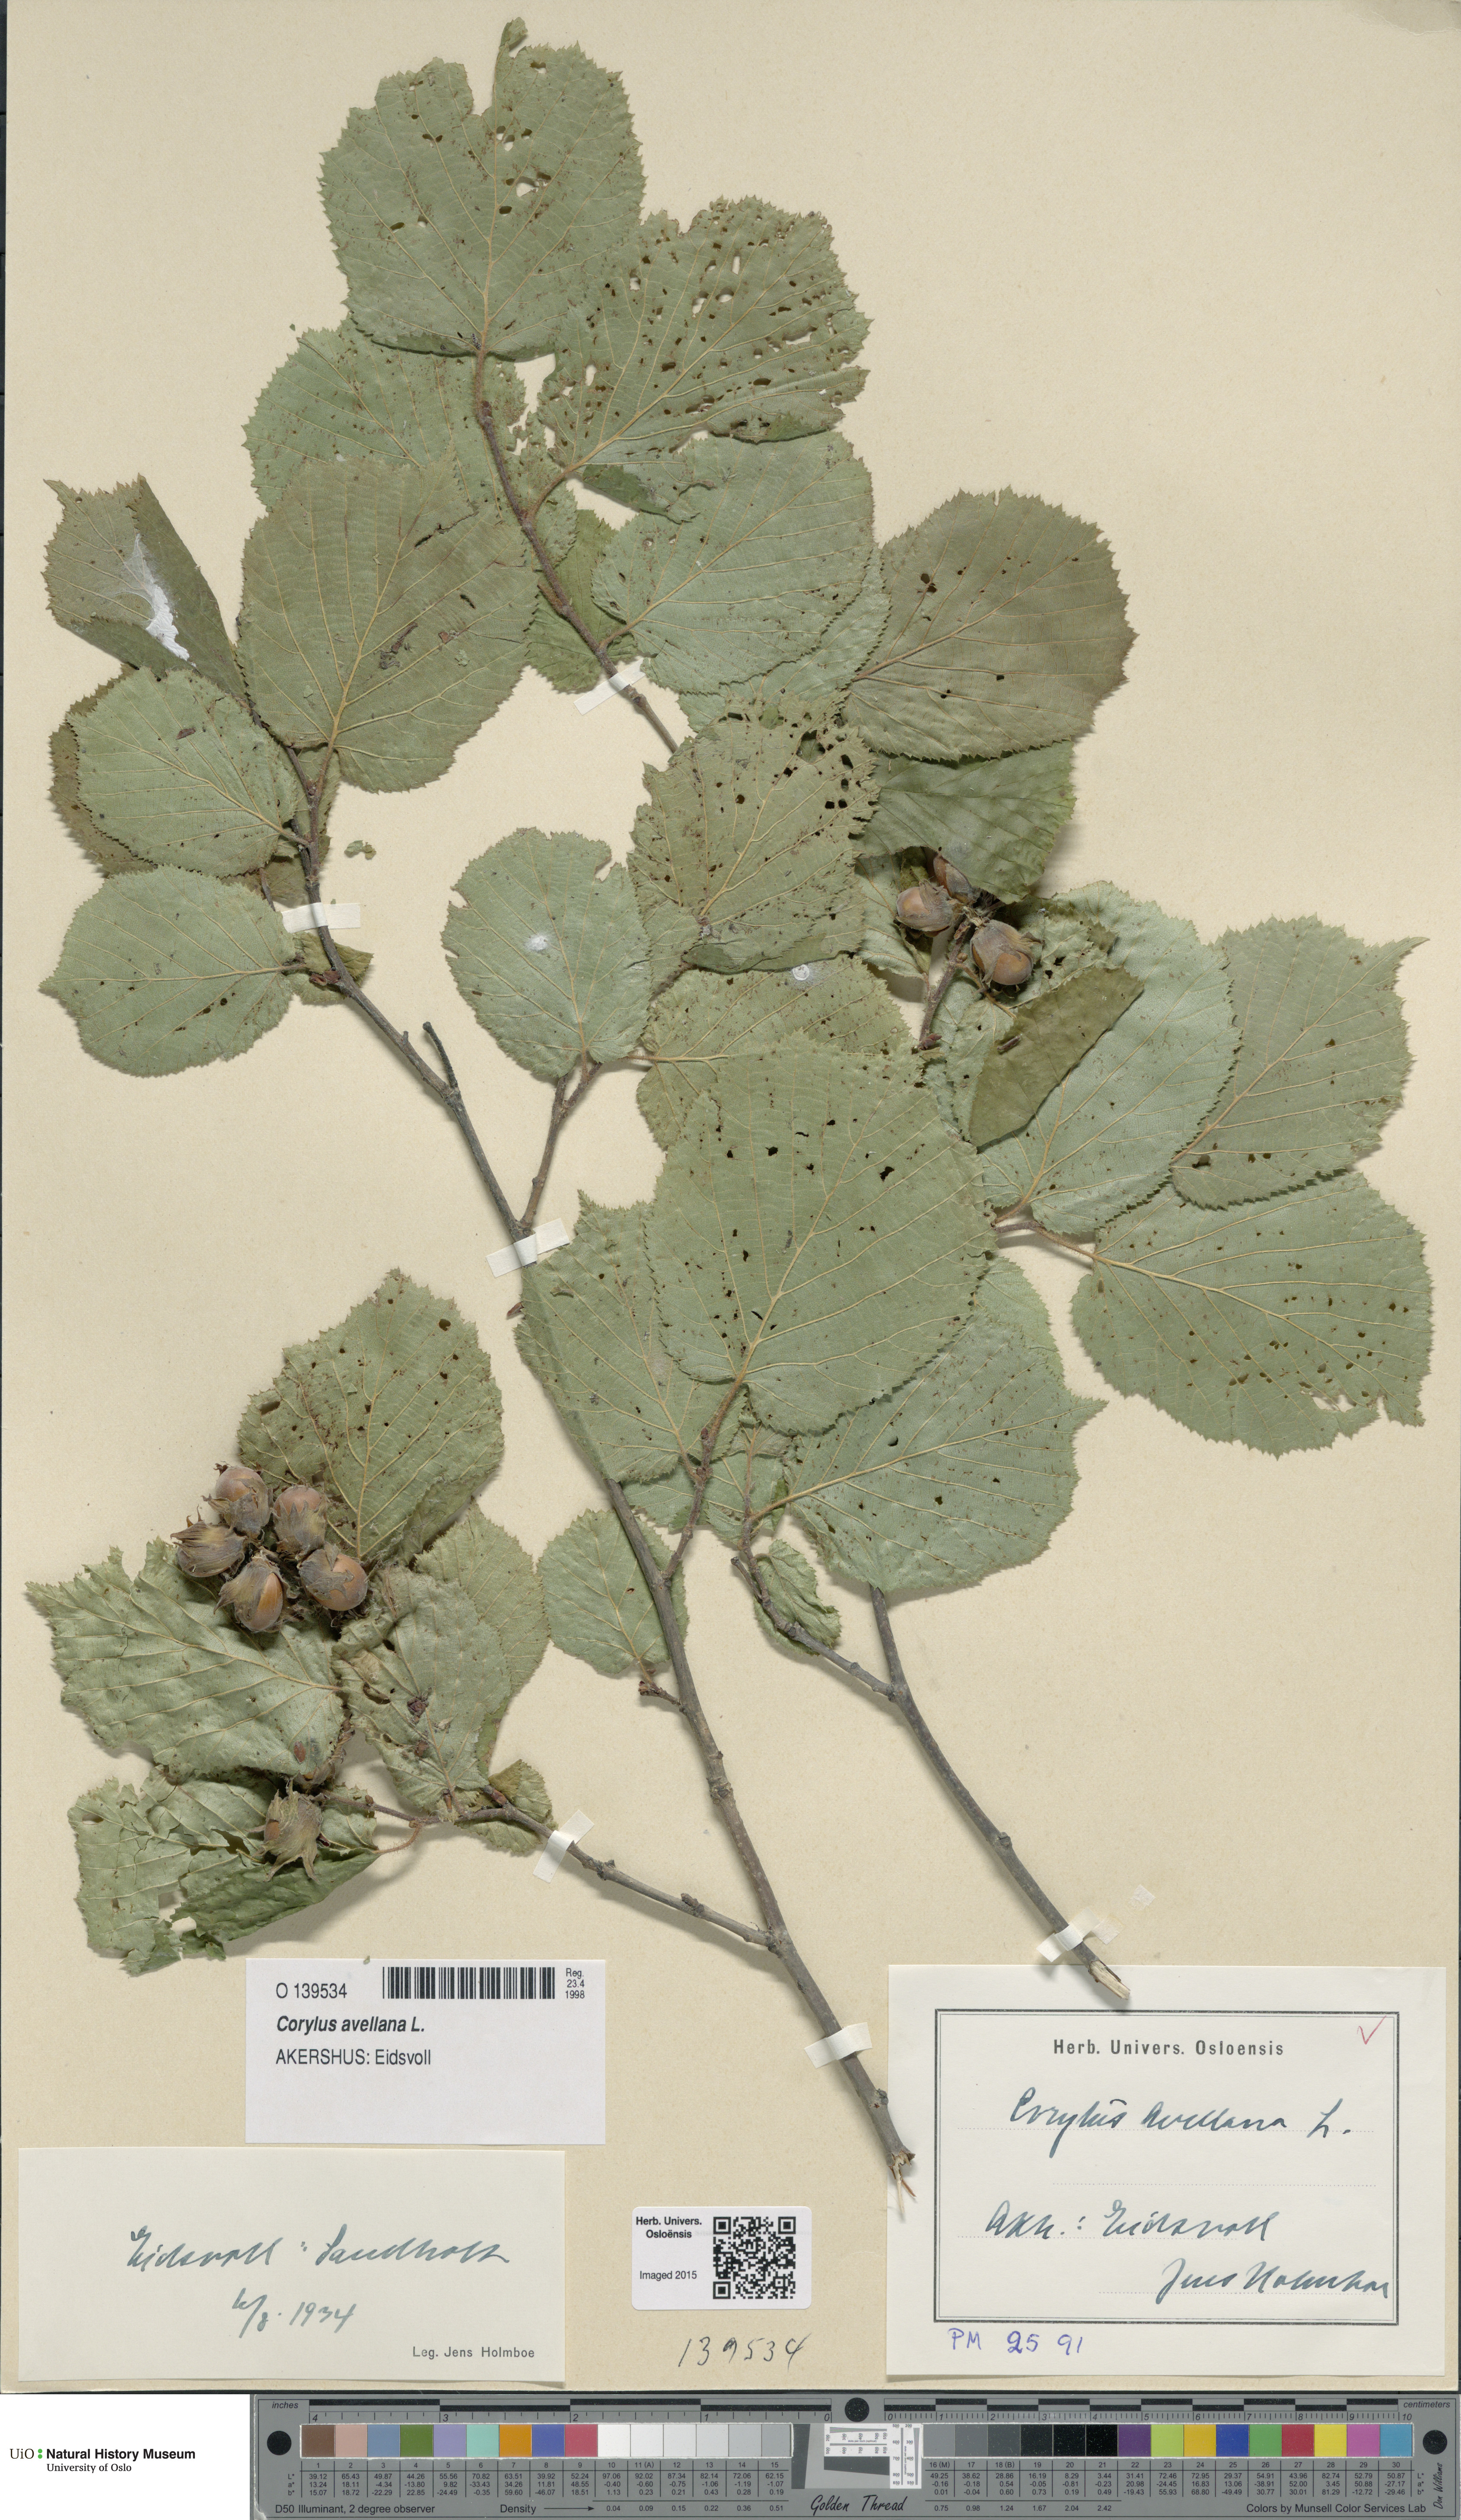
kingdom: Plantae
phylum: Tracheophyta
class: Magnoliopsida
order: Fagales
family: Betulaceae
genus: Corylus
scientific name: Corylus avellana
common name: European hazel
